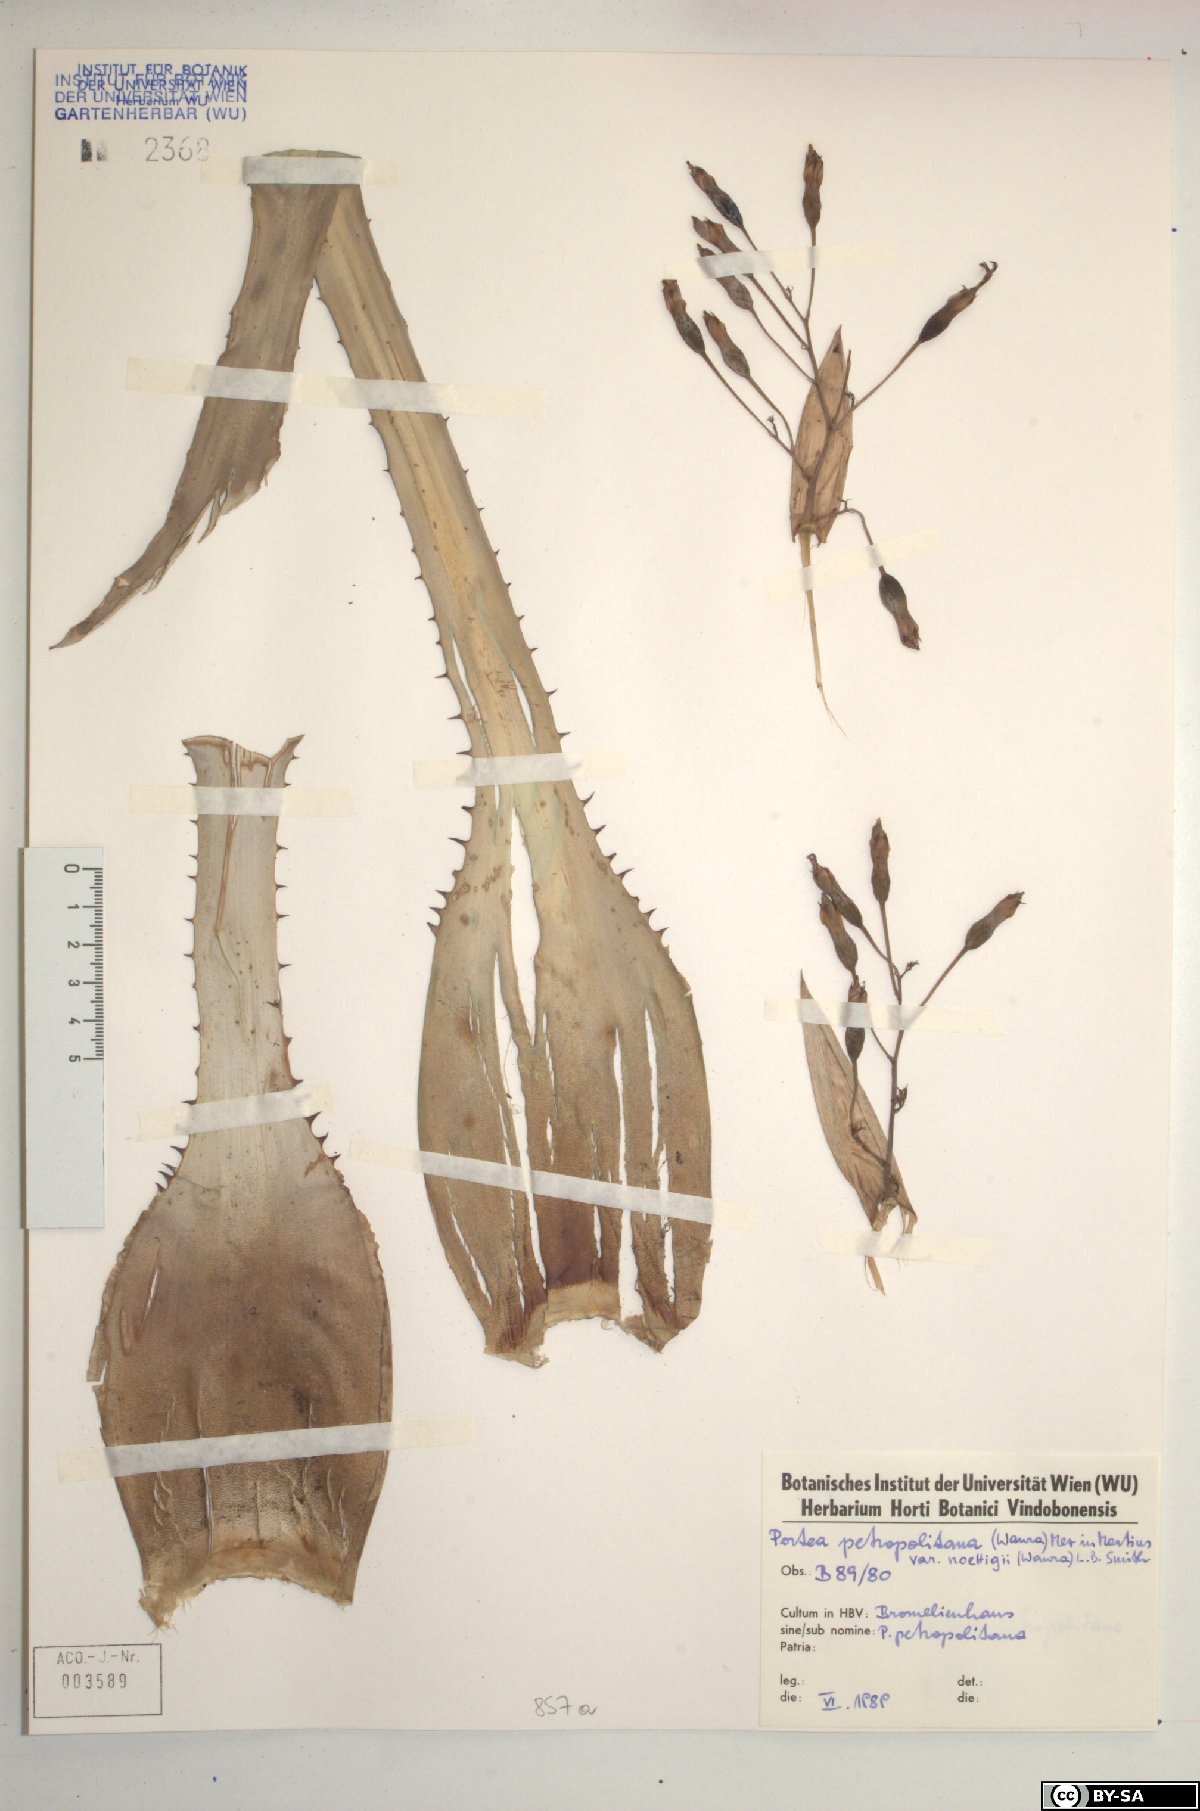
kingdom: Plantae
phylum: Tracheophyta
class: Liliopsida
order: Poales
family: Bromeliaceae
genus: Portea
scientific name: Portea petropolitana
